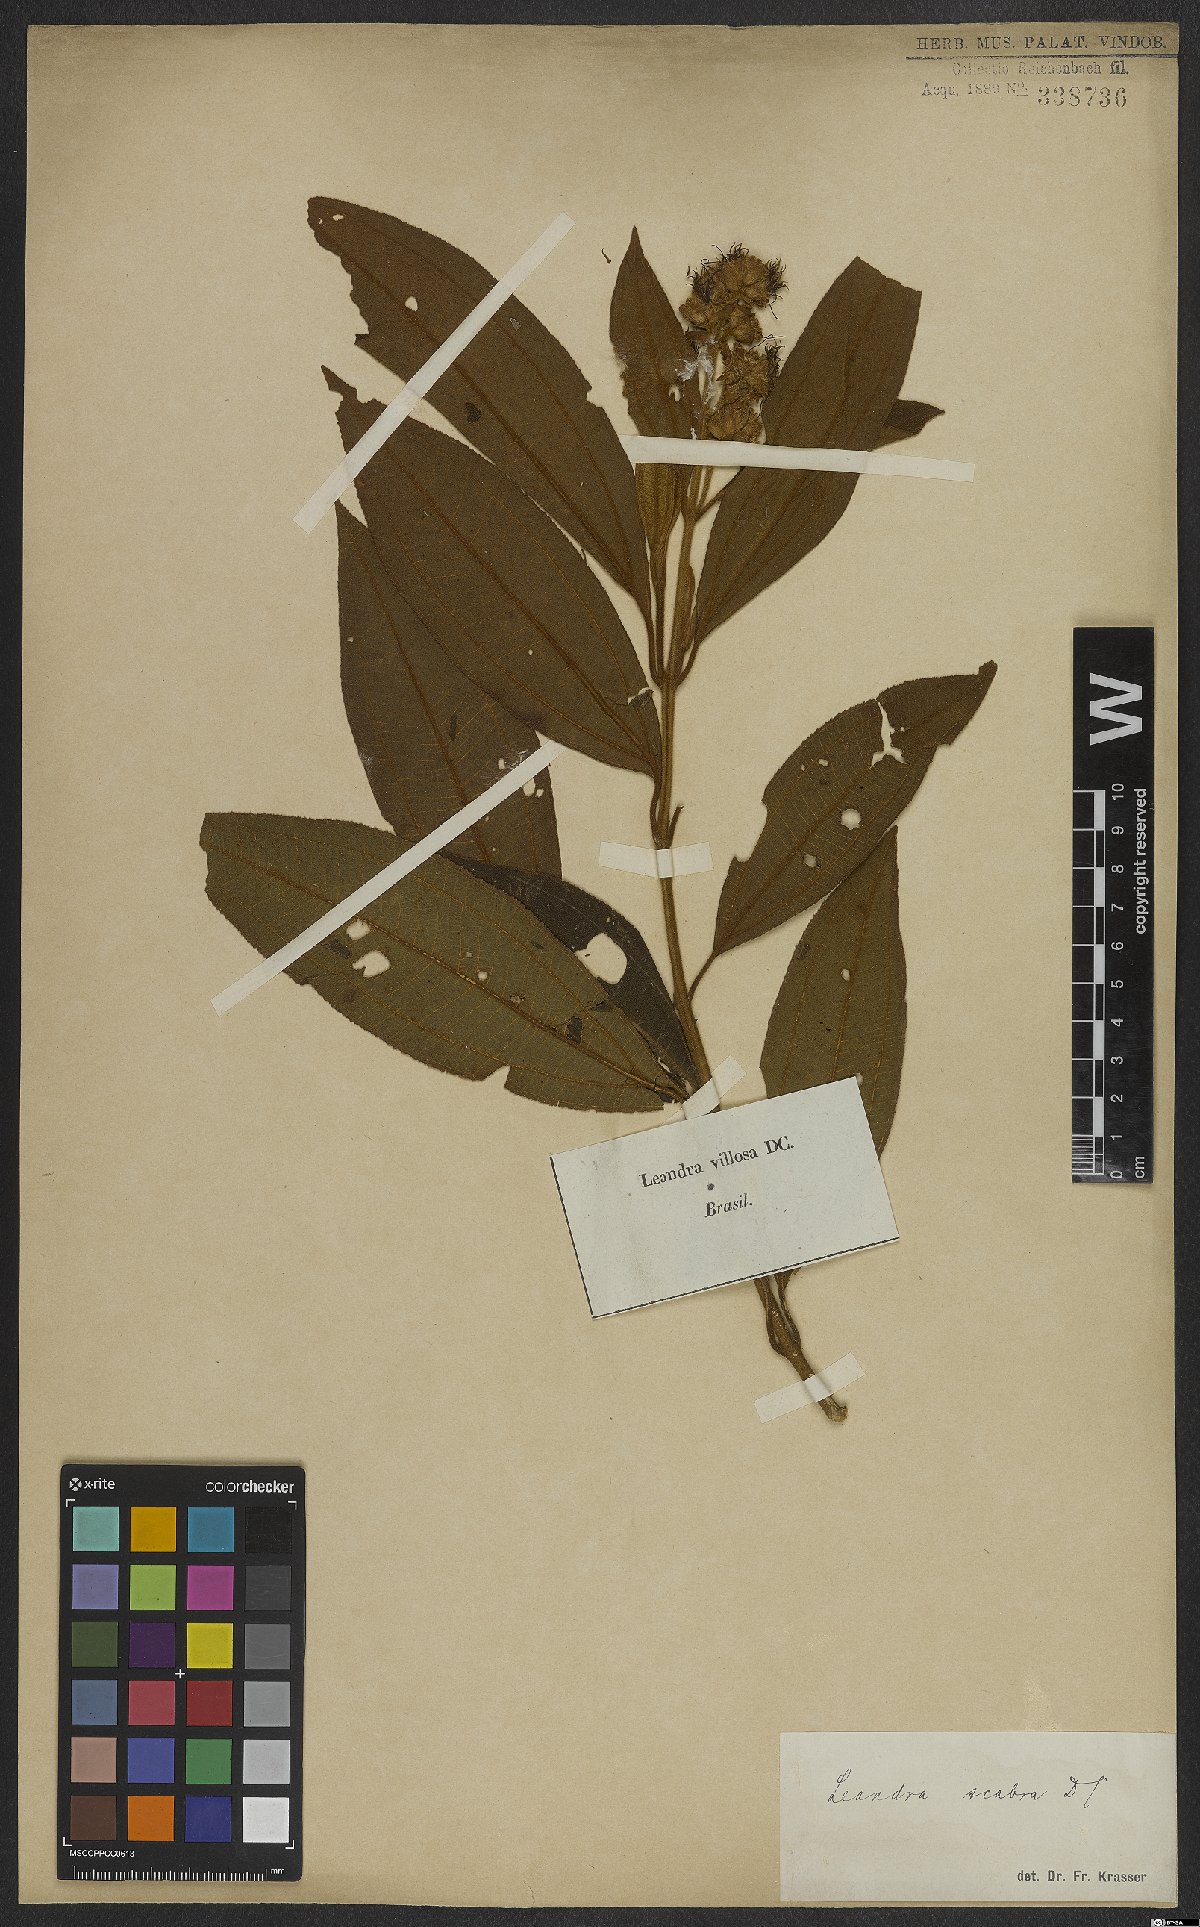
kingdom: Plantae
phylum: Tracheophyta
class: Magnoliopsida
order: Myrtales
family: Melastomataceae
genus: Miconia
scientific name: Miconia melastomoides
